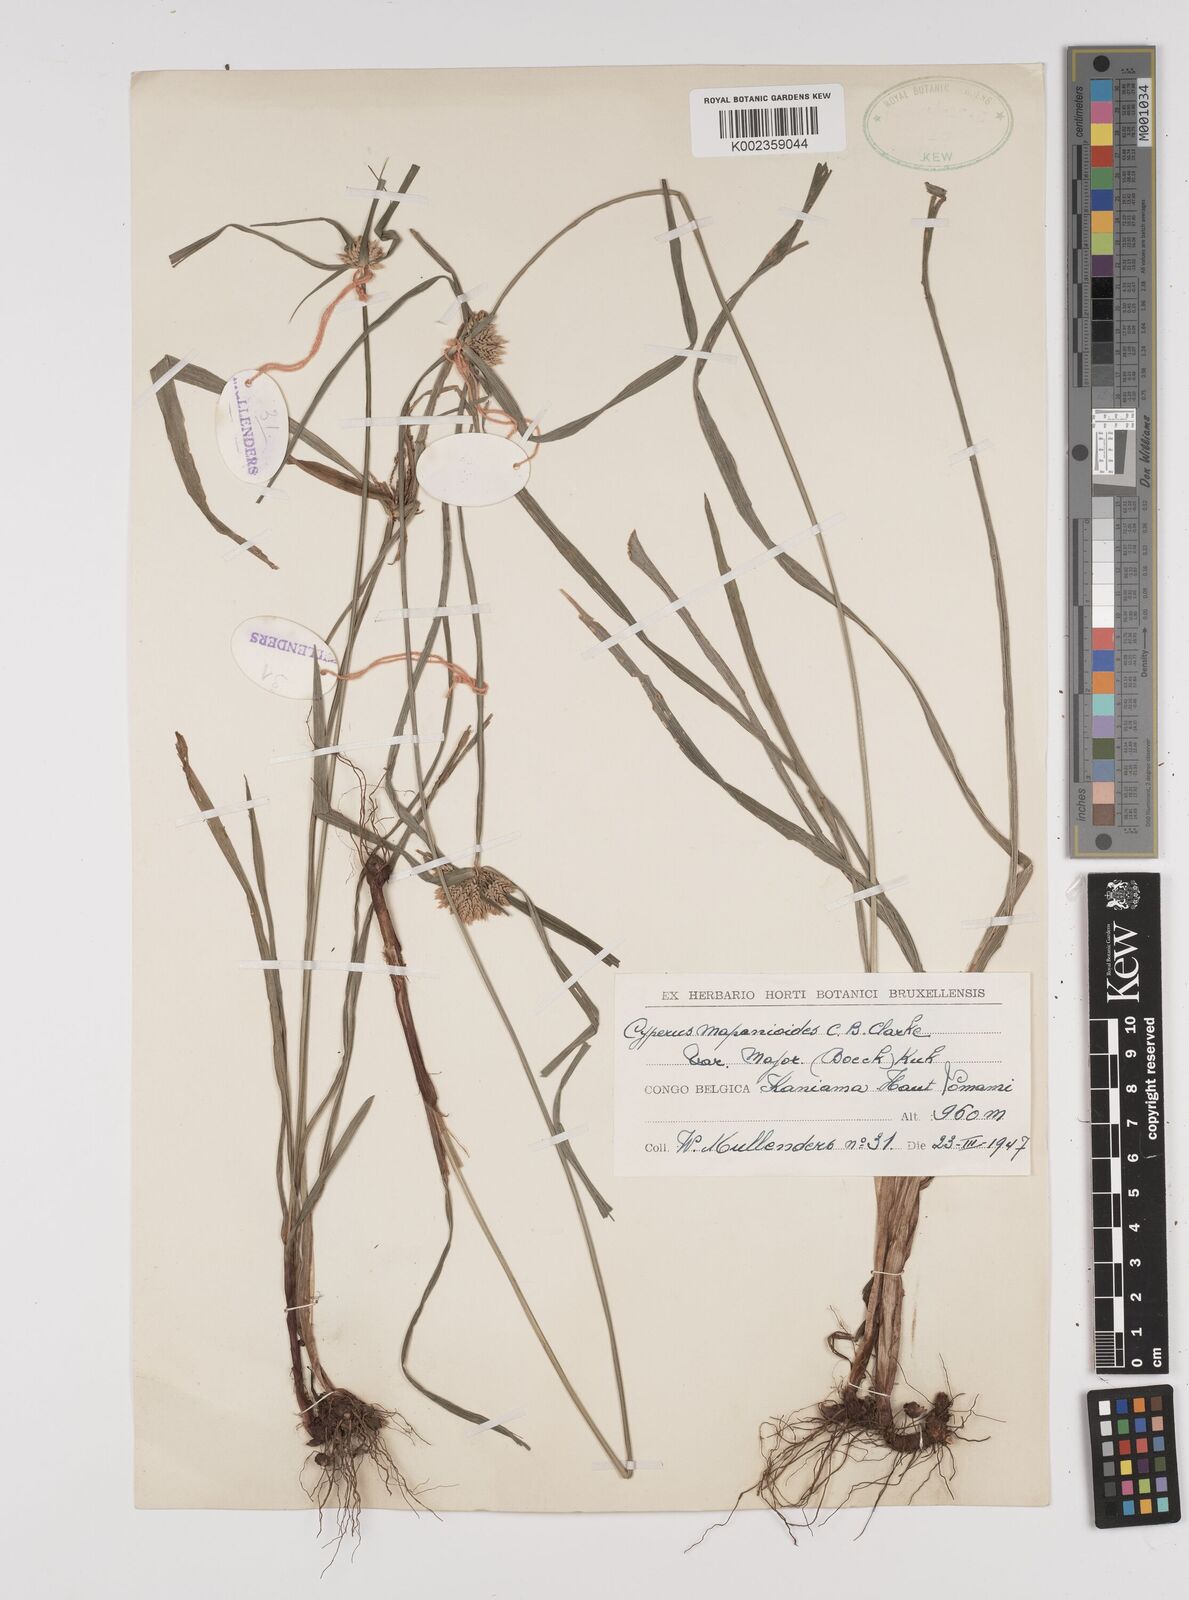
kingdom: Plantae
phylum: Tracheophyta
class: Liliopsida
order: Poales
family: Cyperaceae
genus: Cyperus
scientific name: Cyperus mapanioides
